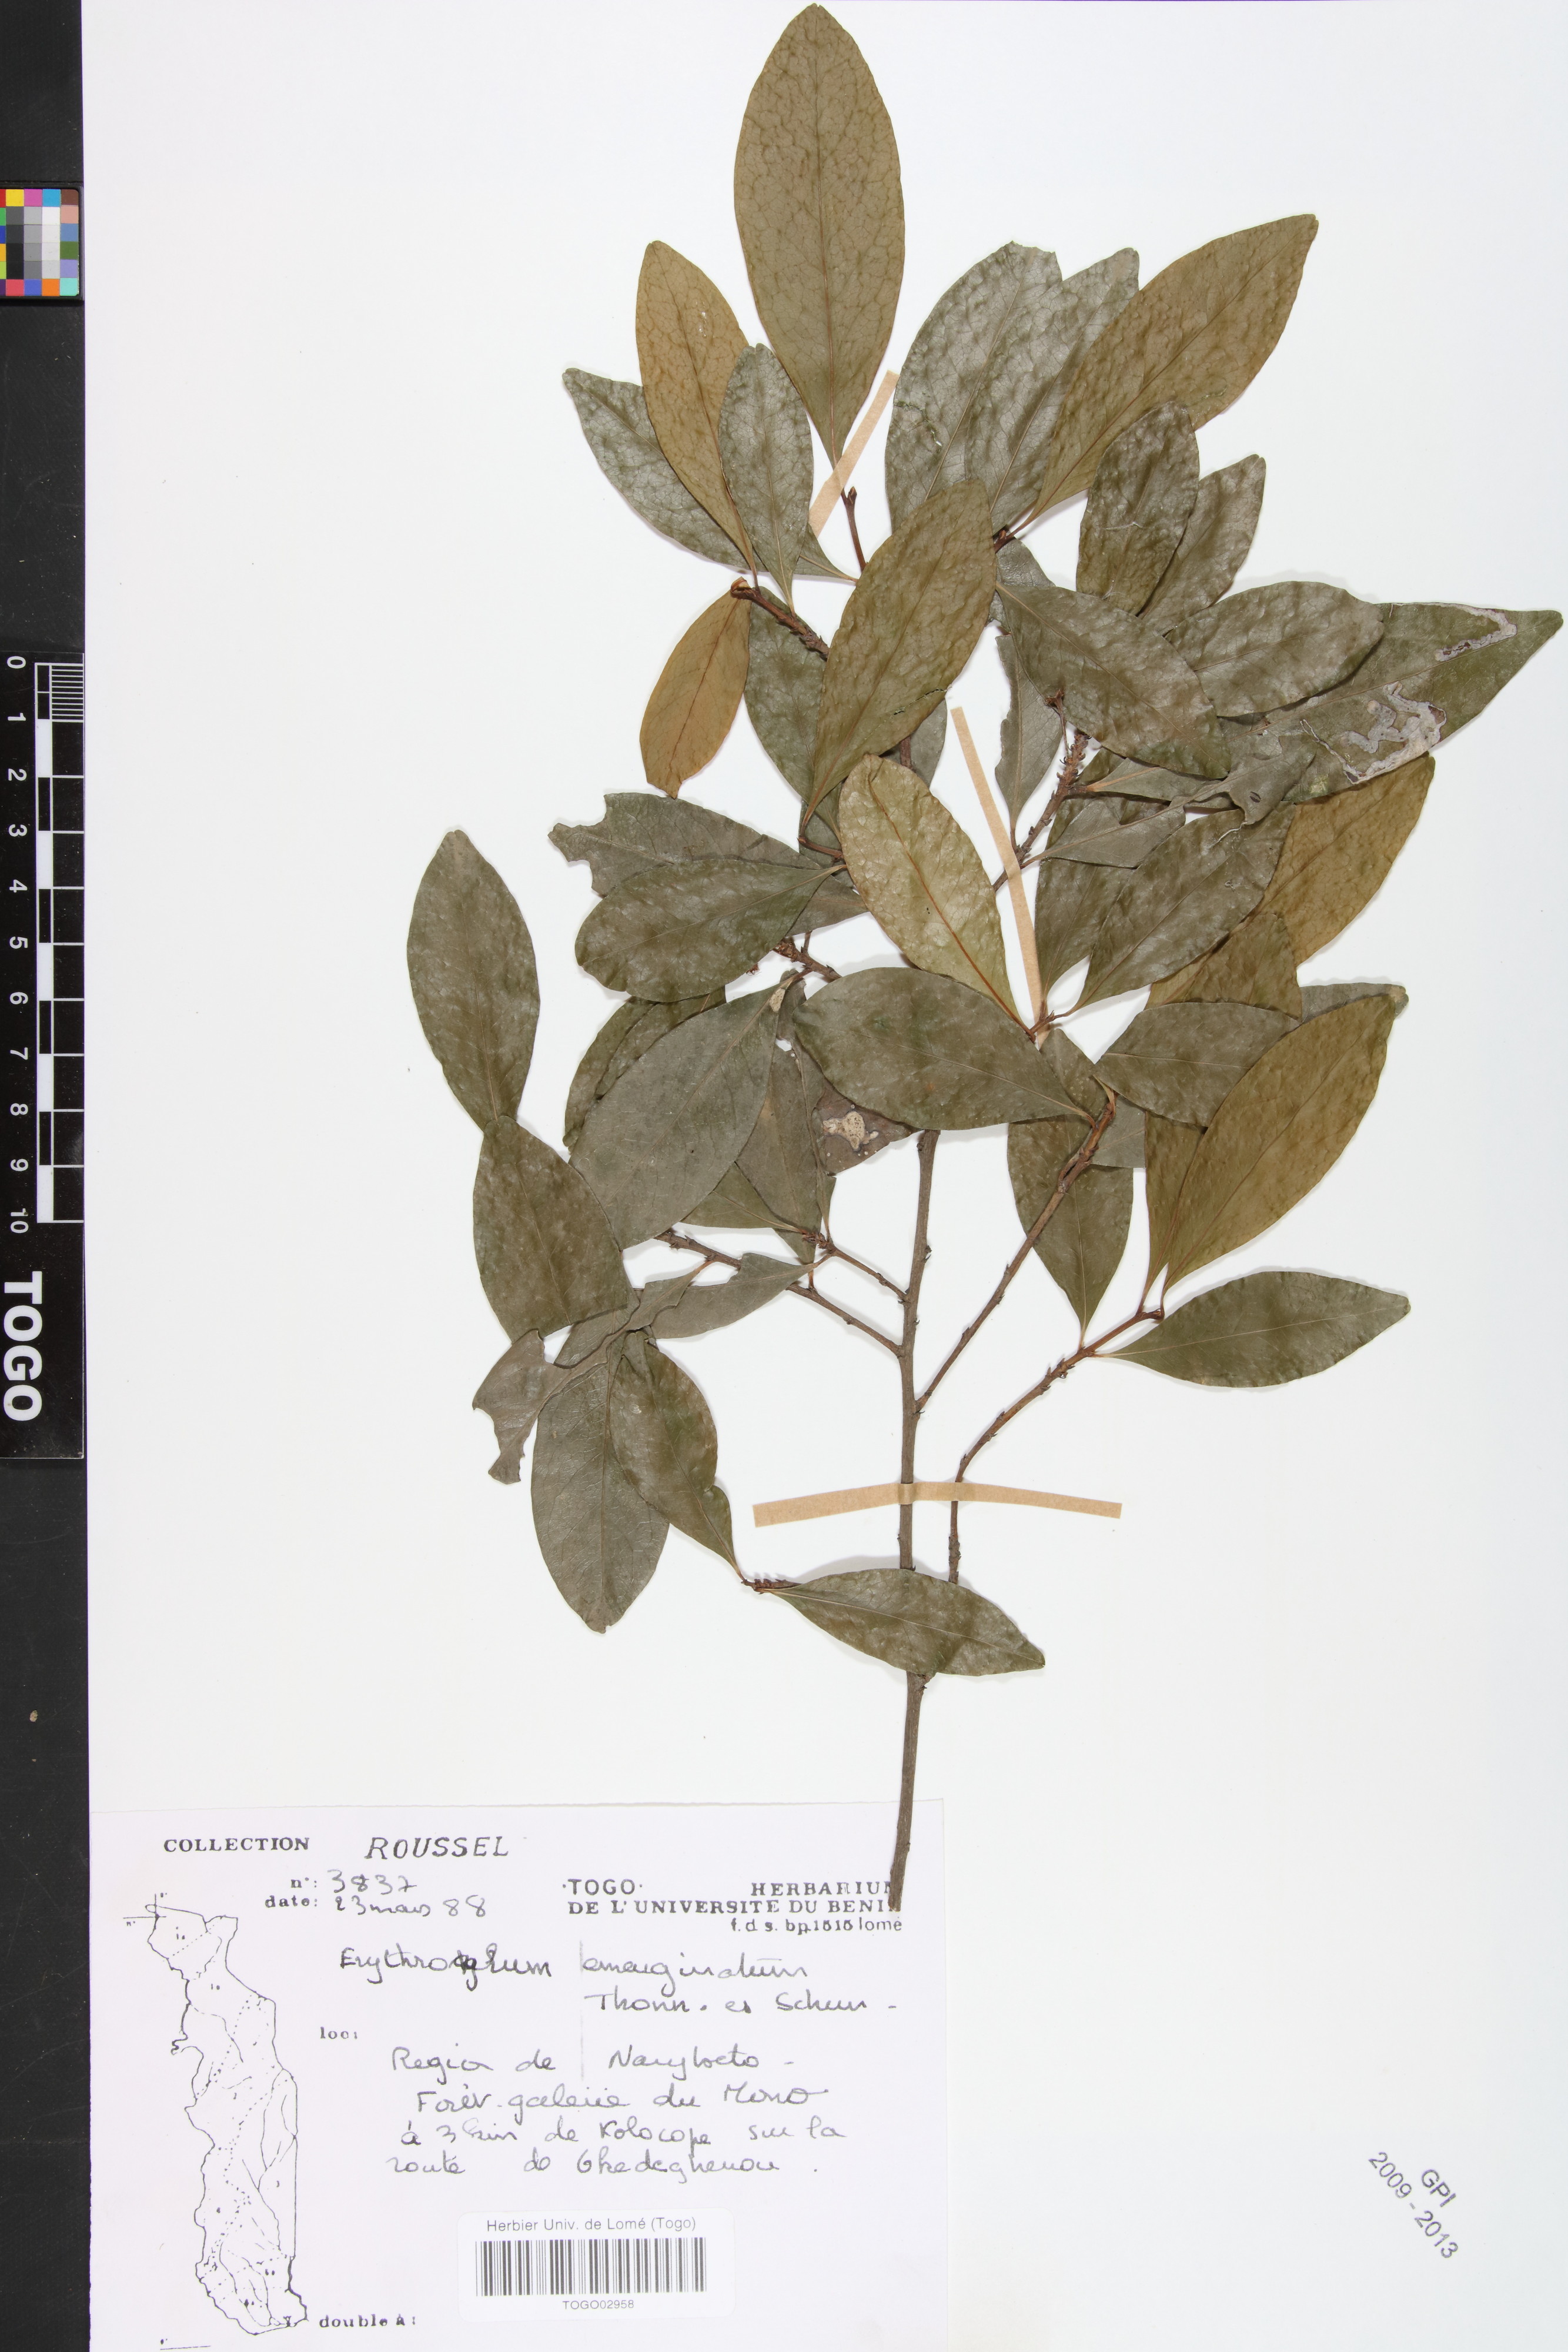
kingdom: Plantae
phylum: Tracheophyta
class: Magnoliopsida
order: Malpighiales
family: Erythroxylaceae
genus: Erythroxylum
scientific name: Erythroxylum emarginatum
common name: African coca-tree
